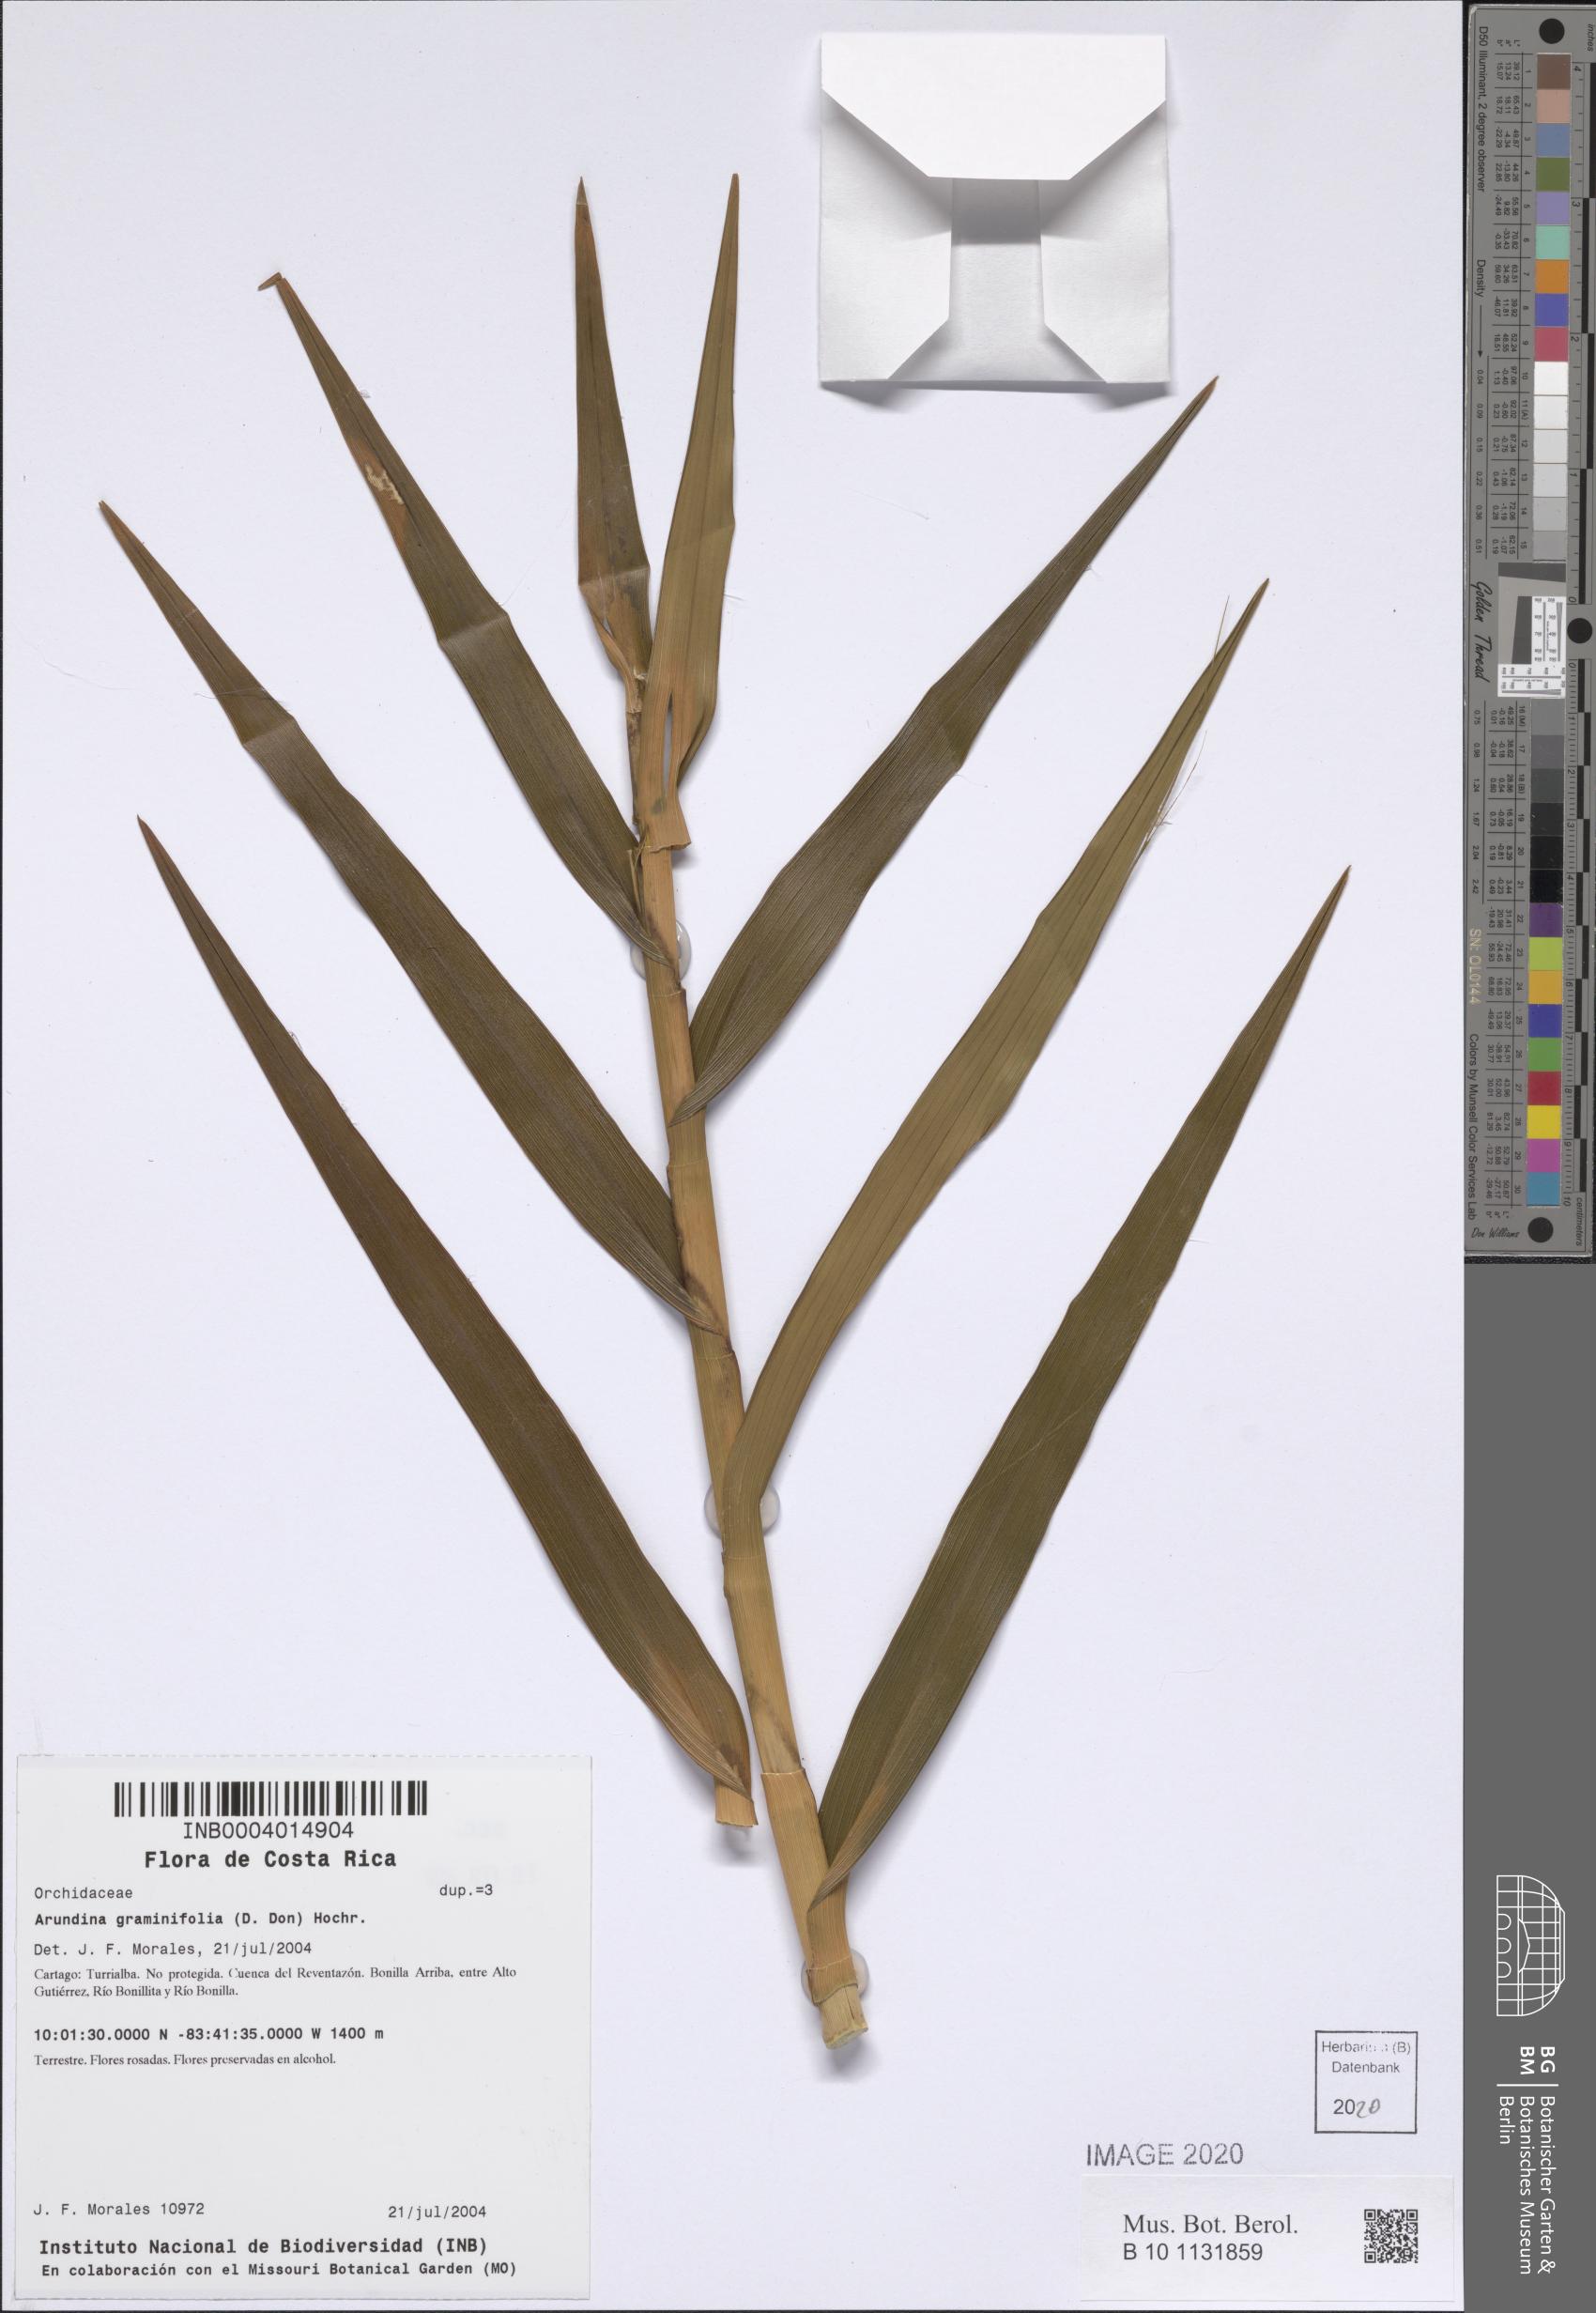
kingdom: Plantae
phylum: Tracheophyta
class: Liliopsida
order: Asparagales
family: Orchidaceae
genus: Arundina
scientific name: Arundina graminifolia
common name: Bamboo orchid
